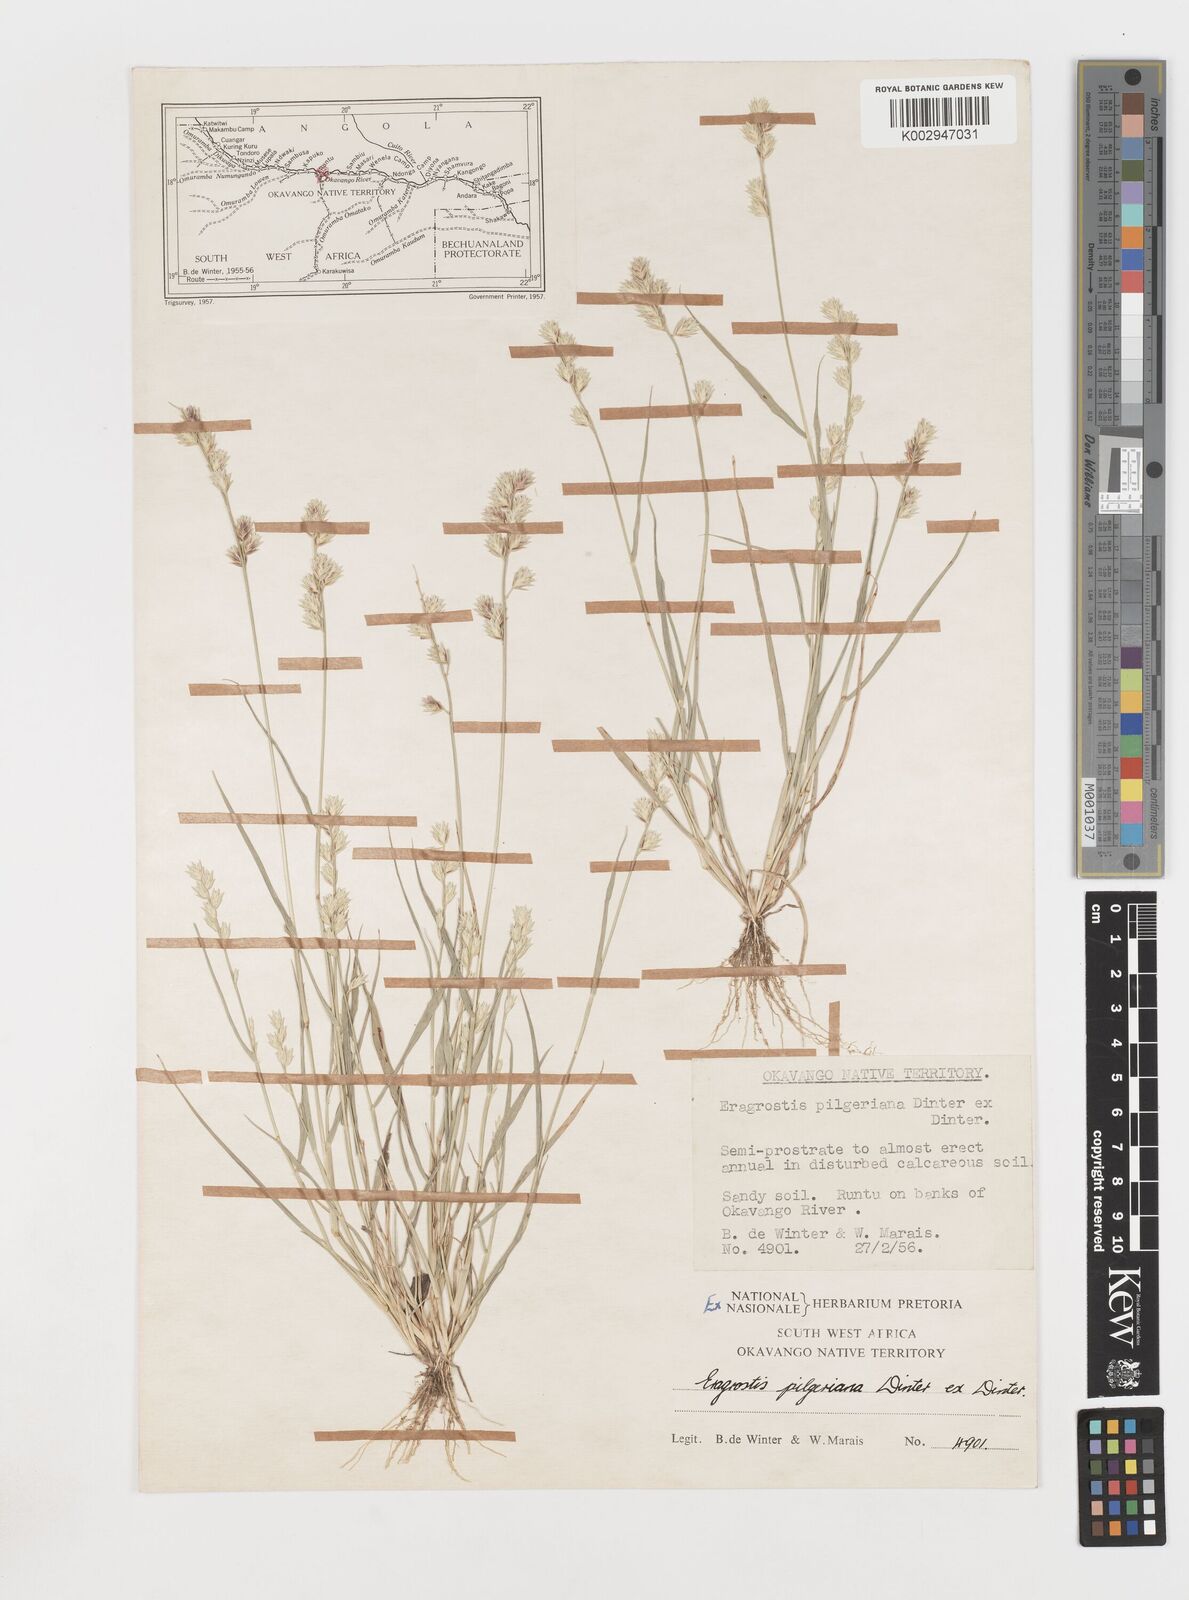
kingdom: Plantae
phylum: Tracheophyta
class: Liliopsida
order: Poales
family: Poaceae
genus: Eragrostis
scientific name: Eragrostis pilgeriana
